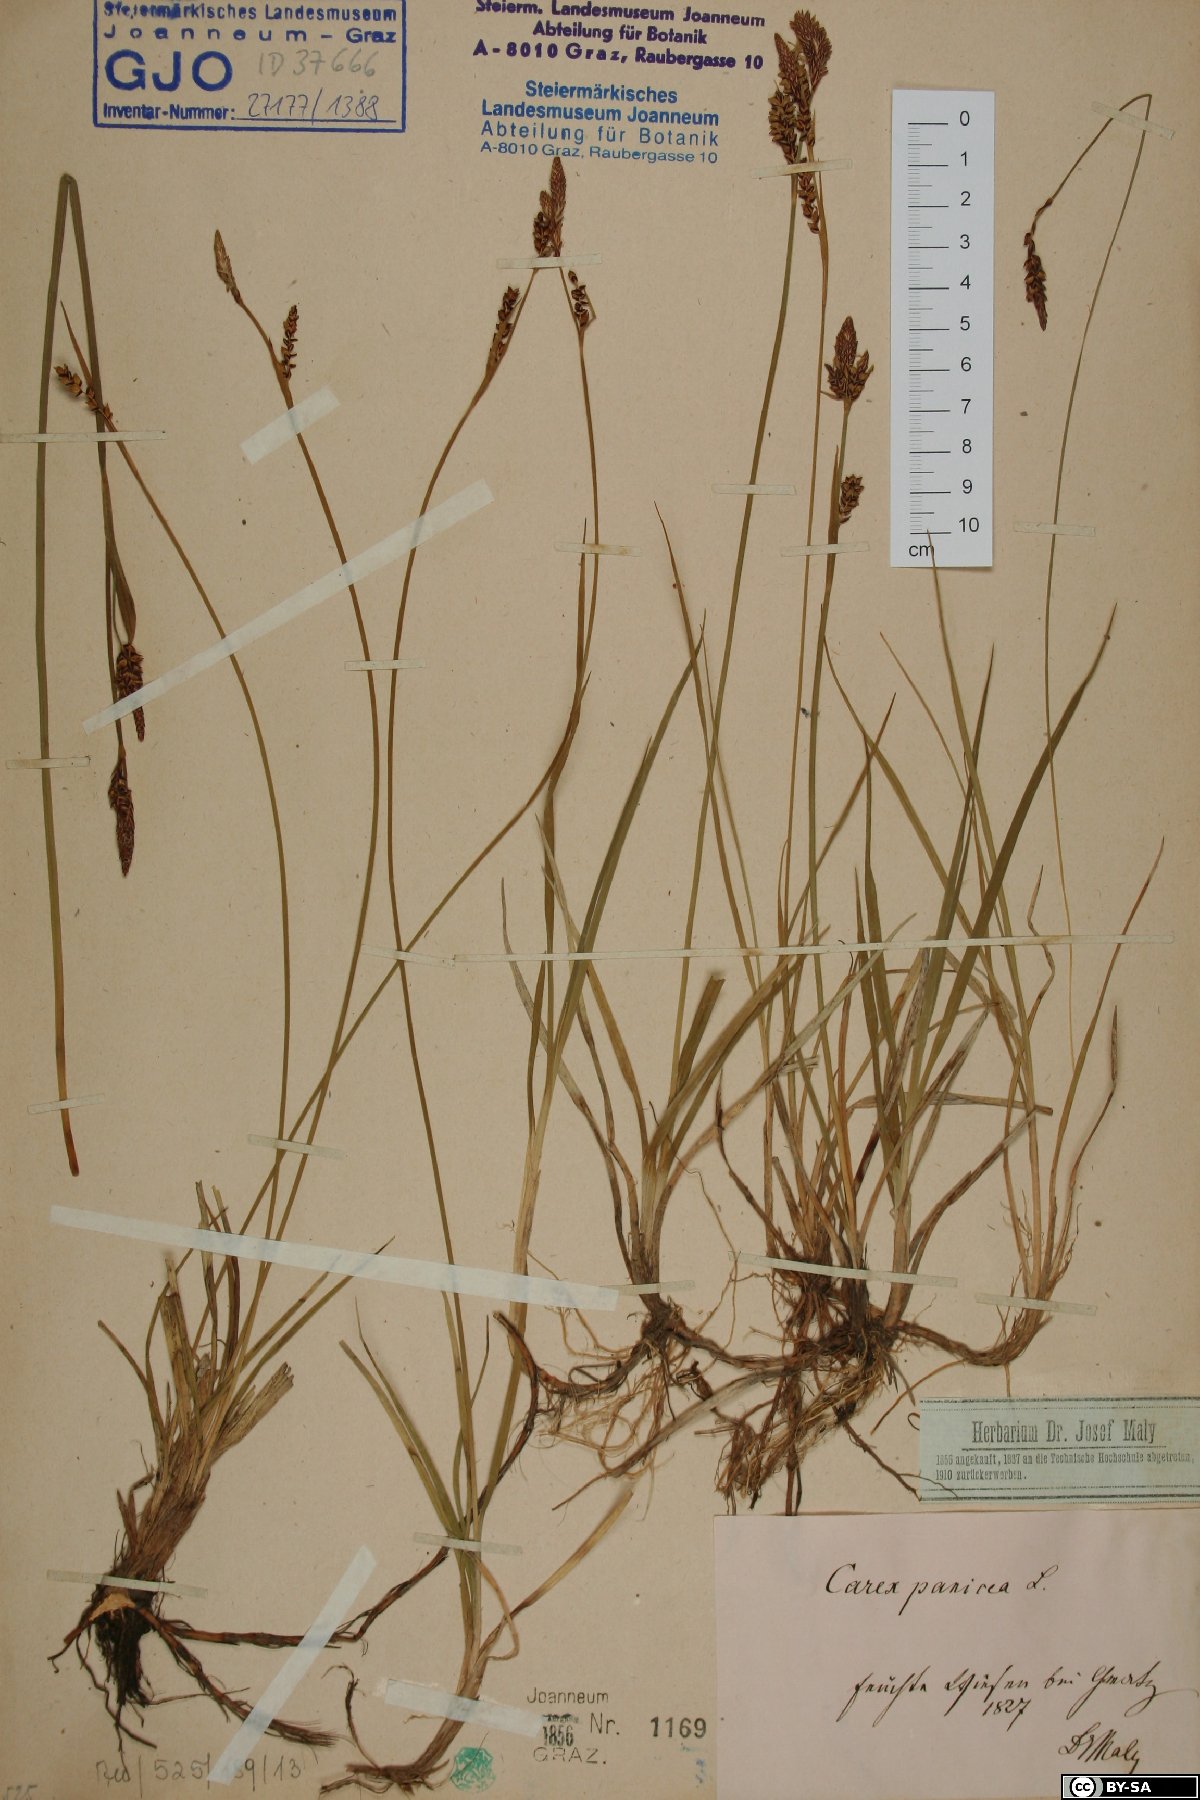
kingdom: Plantae
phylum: Tracheophyta
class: Liliopsida
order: Poales
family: Cyperaceae
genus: Carex
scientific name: Carex panicea
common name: Carnation sedge
